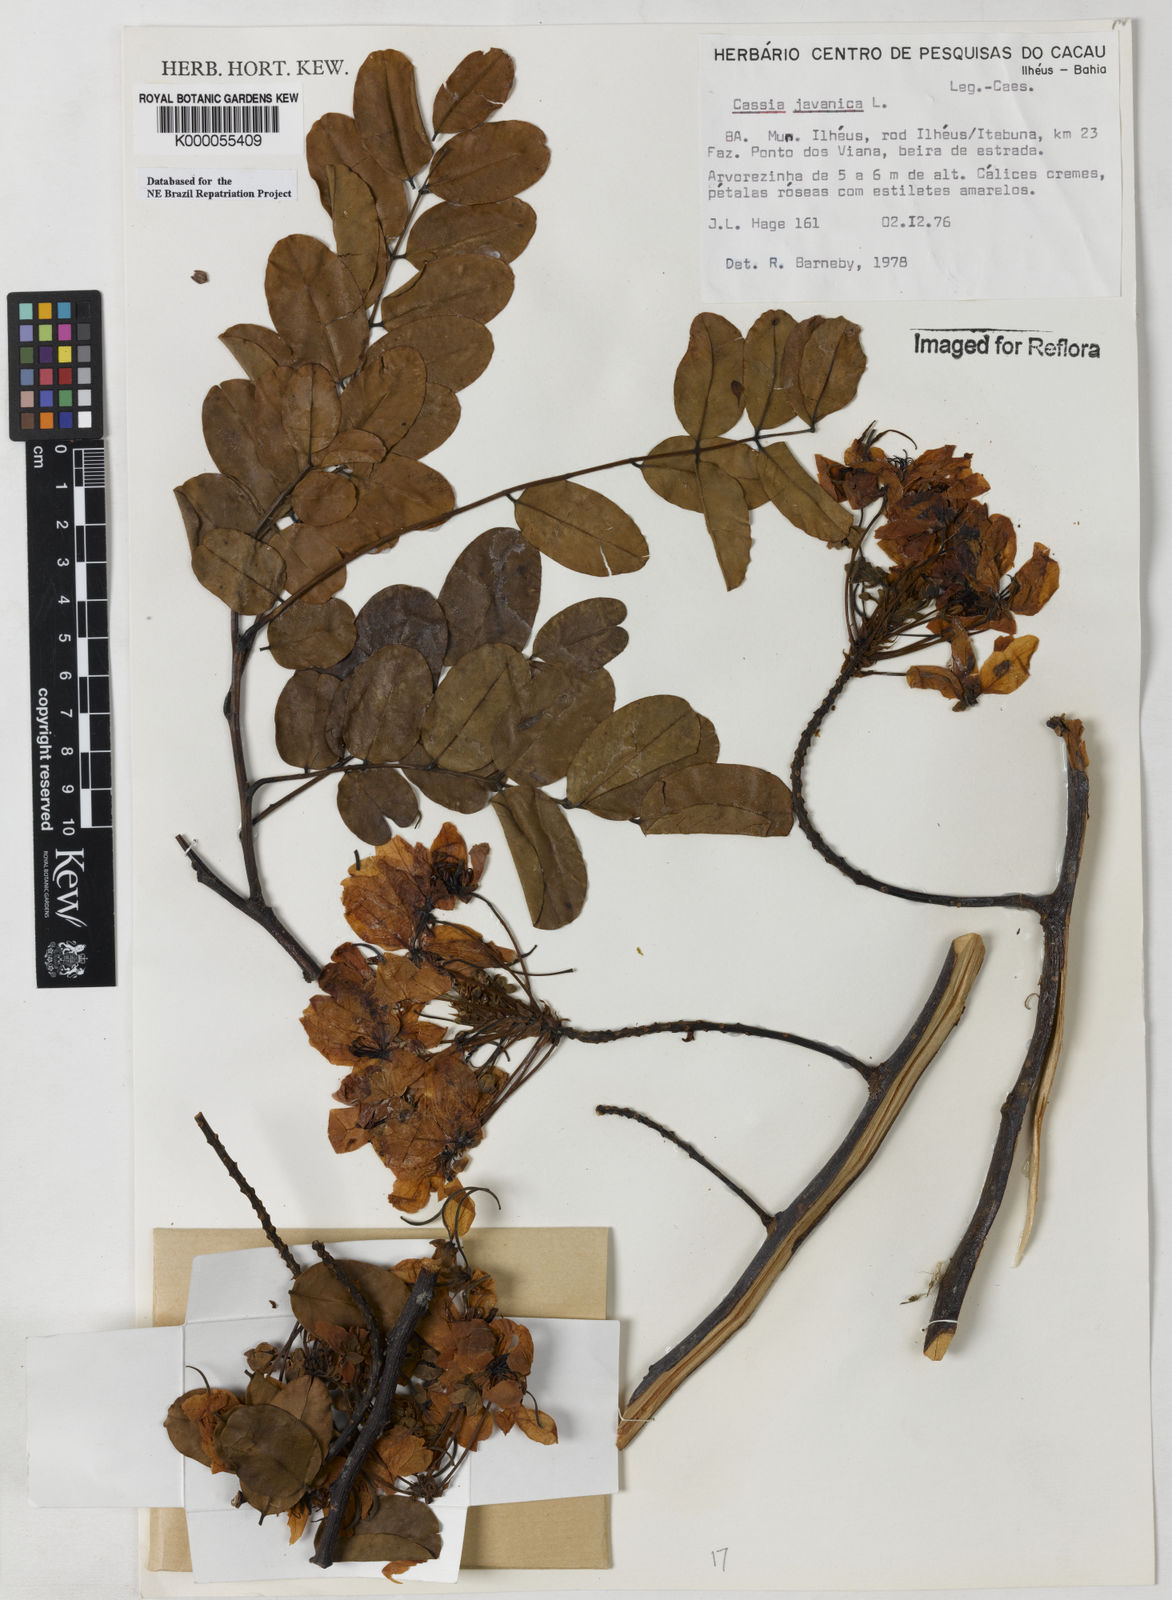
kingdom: Plantae
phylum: Tracheophyta
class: Magnoliopsida
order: Fabales
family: Fabaceae
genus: Cassia
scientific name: Cassia javanica
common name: Apple blossom
